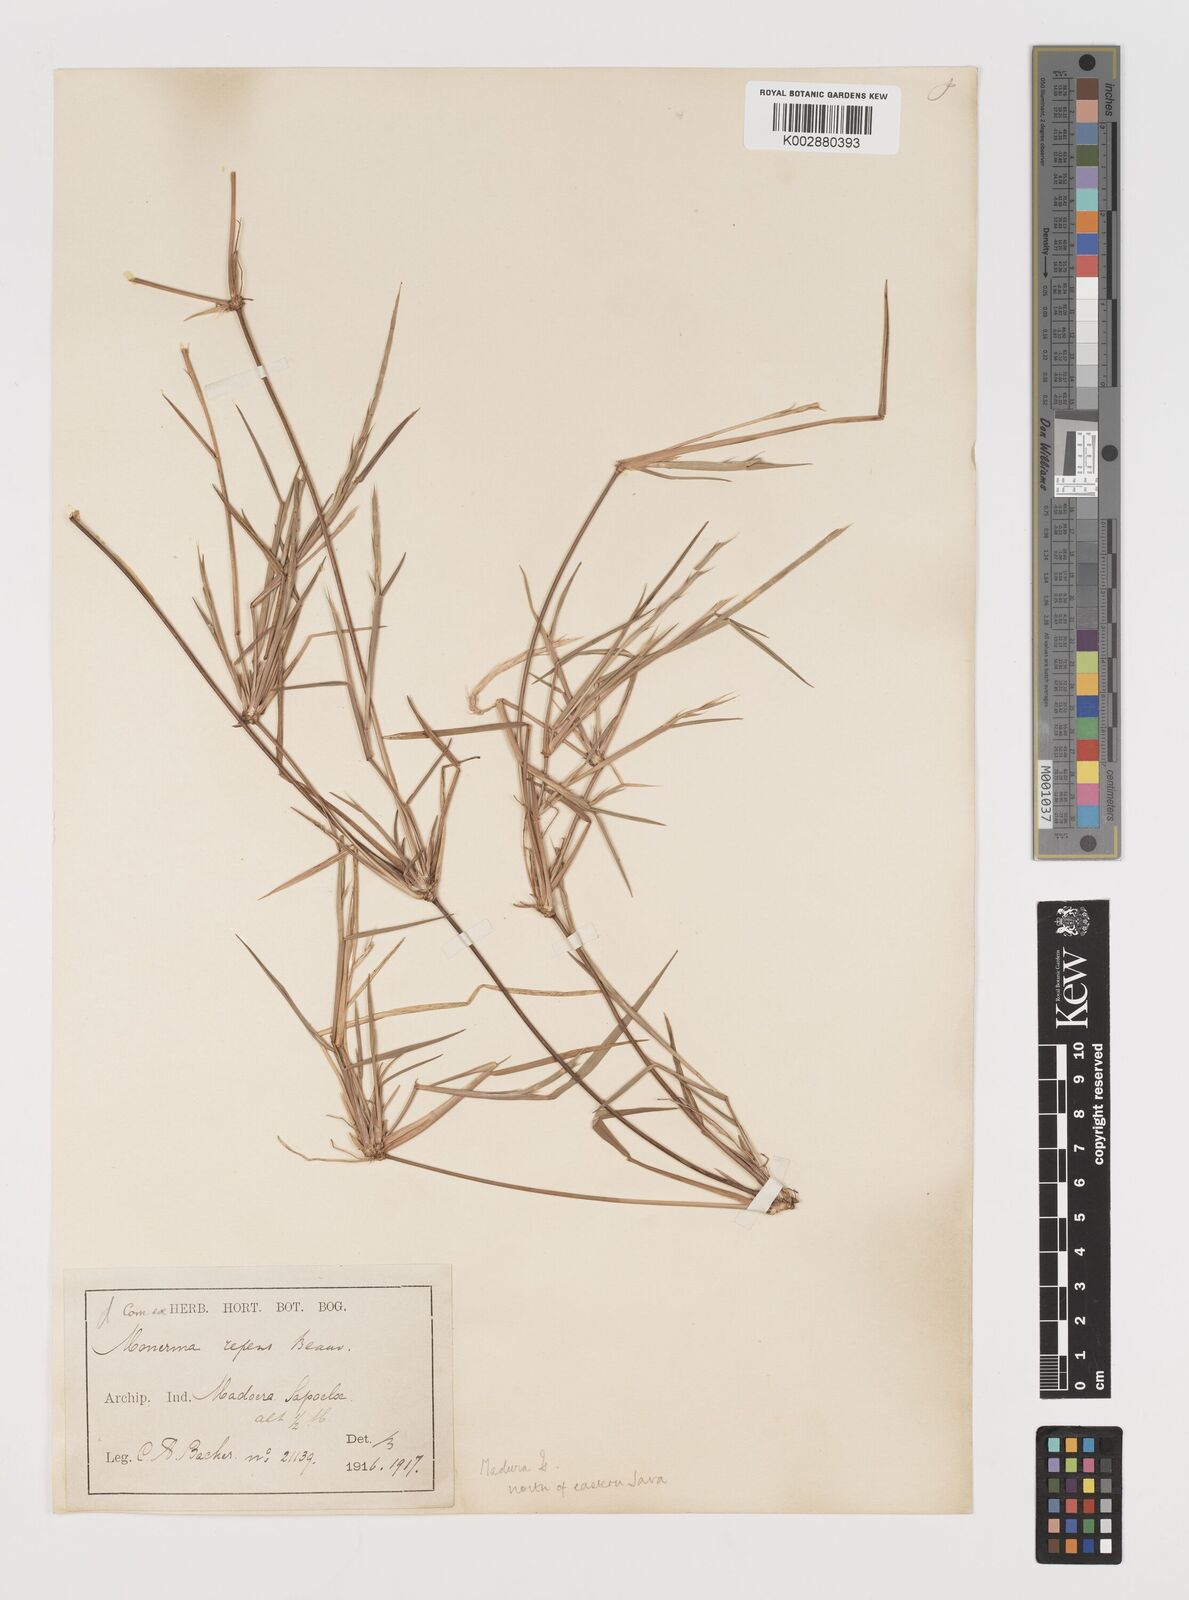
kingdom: Plantae
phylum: Tracheophyta
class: Liliopsida
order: Poales
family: Poaceae
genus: Lepturus
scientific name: Lepturus repens
